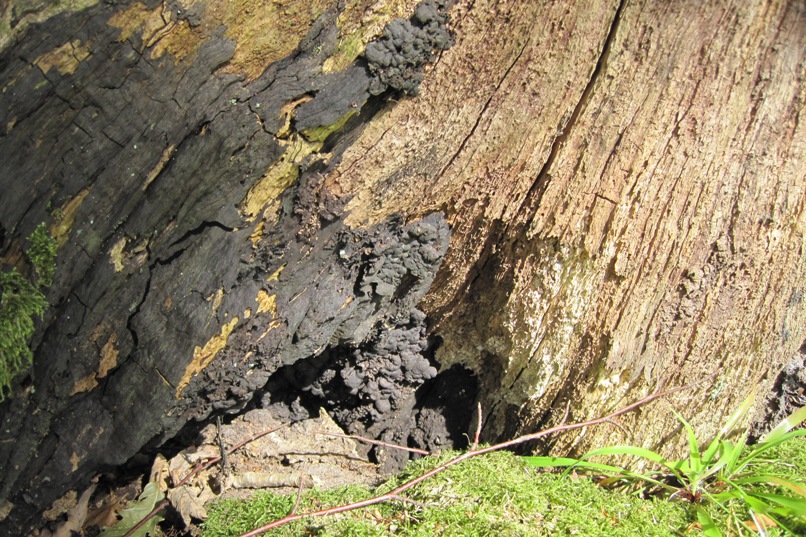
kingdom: Fungi
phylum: Ascomycota
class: Sordariomycetes
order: Xylariales
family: Xylariaceae
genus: Kretzschmaria
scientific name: Kretzschmaria deusta
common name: stor kulsvamp
